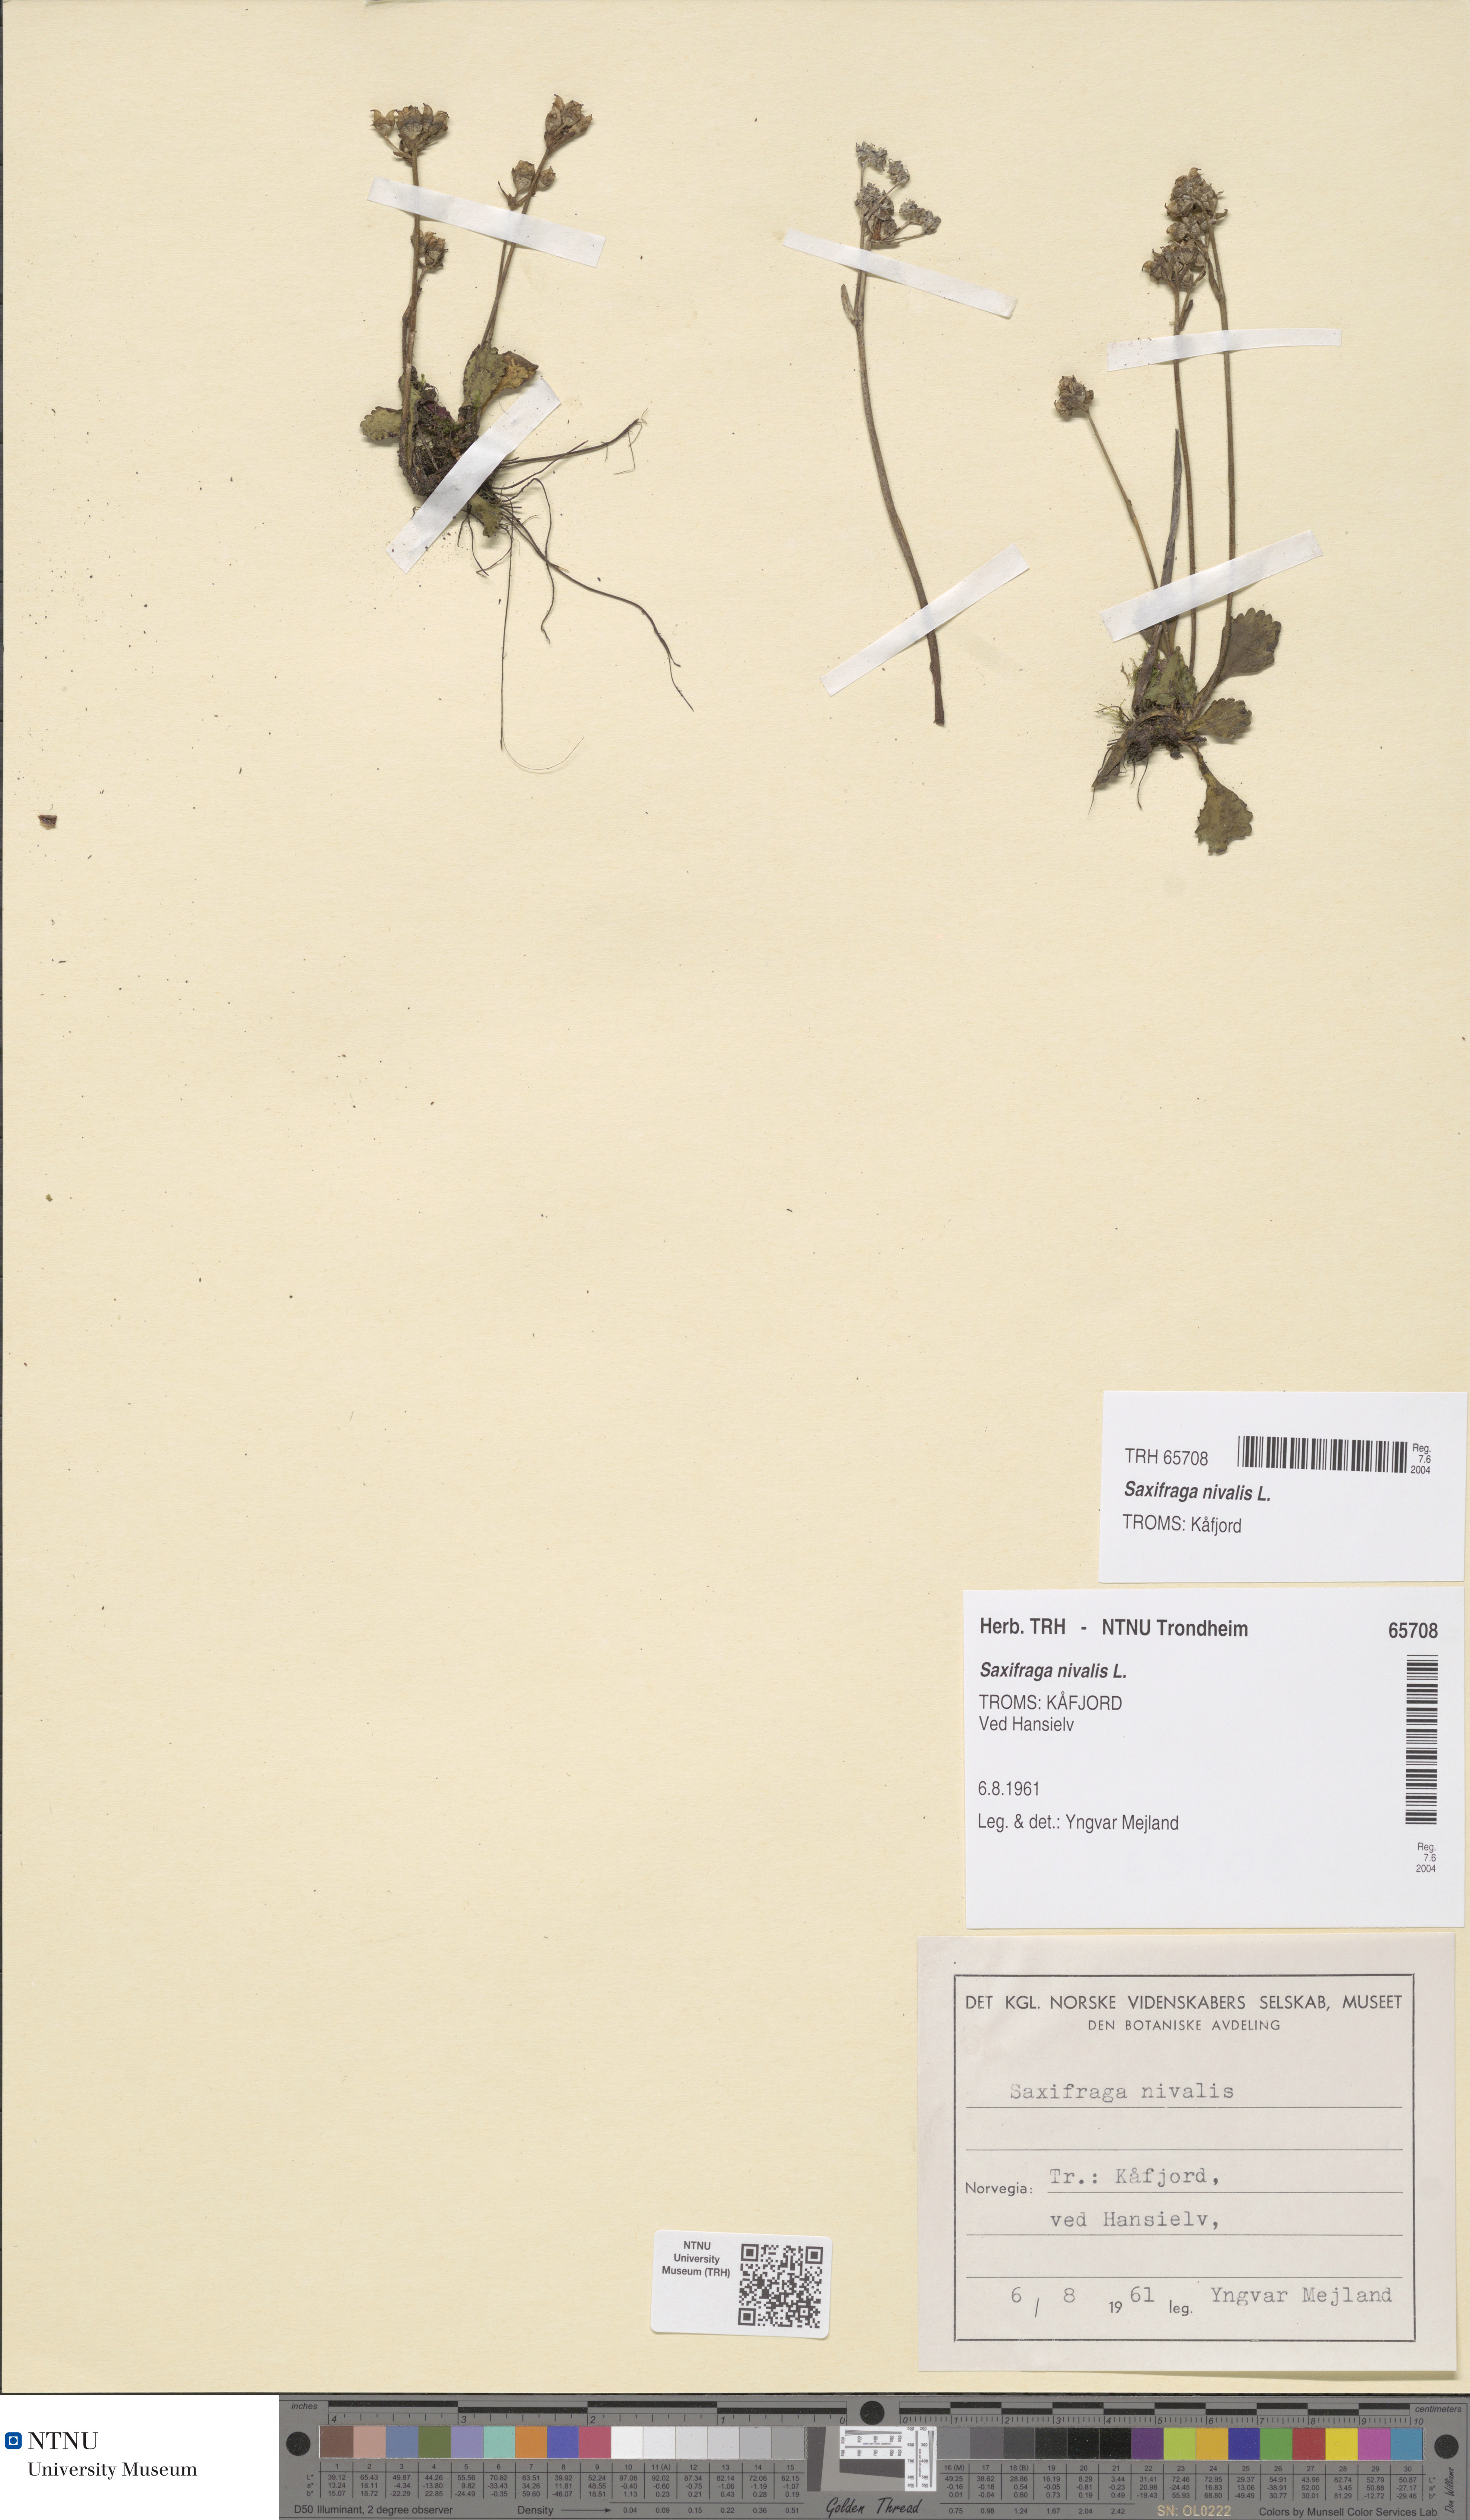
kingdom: Plantae
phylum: Tracheophyta
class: Magnoliopsida
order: Saxifragales
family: Saxifragaceae
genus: Micranthes
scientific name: Micranthes nivalis
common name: Alpine saxifrage
